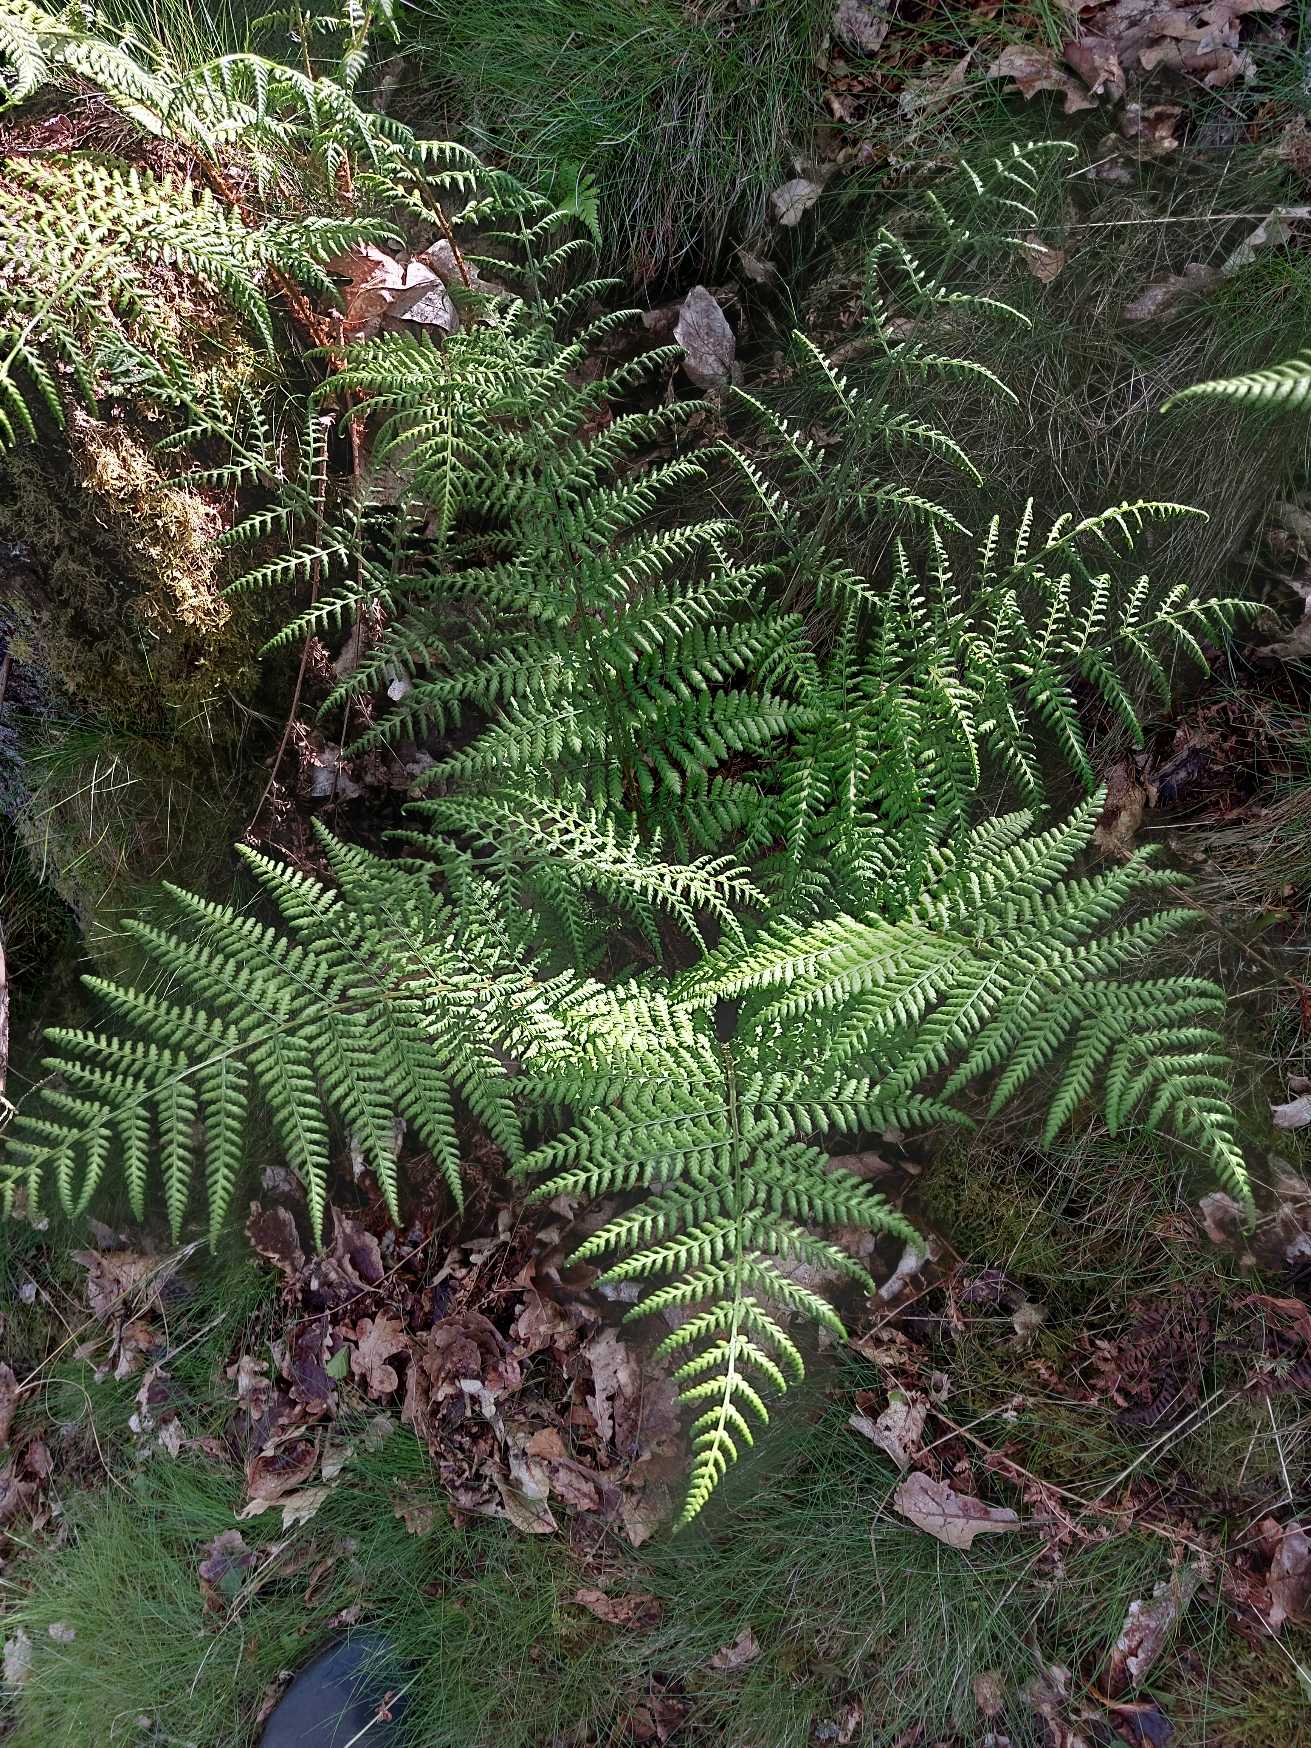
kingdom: Plantae
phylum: Tracheophyta
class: Polypodiopsida
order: Polypodiales
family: Dryopteridaceae
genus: Dryopteris
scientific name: Dryopteris dilatata
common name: Bredbladet mangeløv
